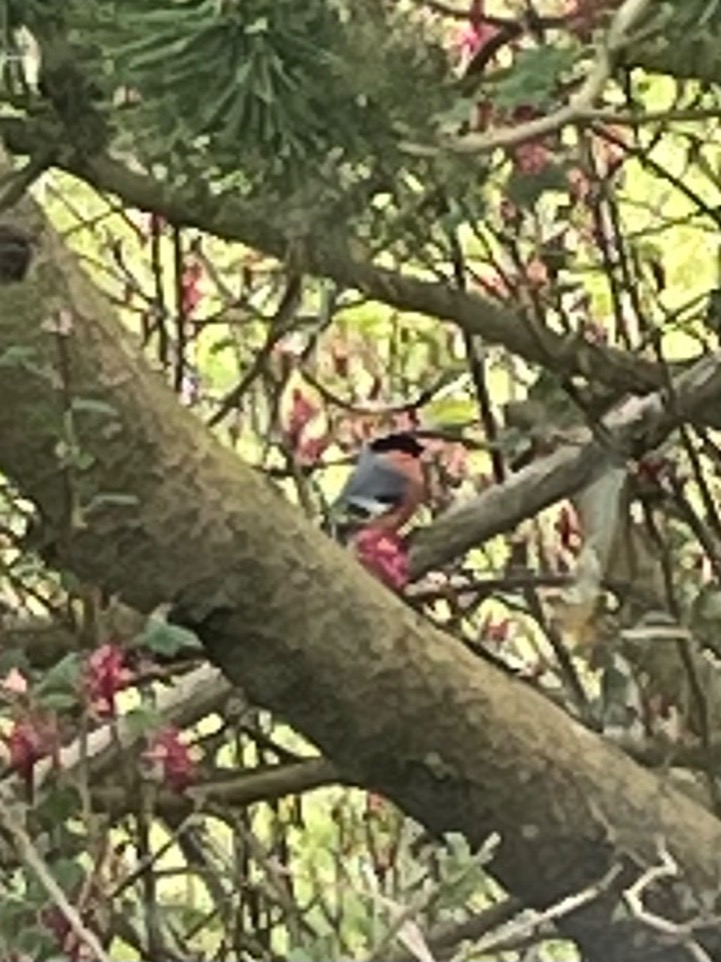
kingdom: Animalia
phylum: Chordata
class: Aves
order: Passeriformes
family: Fringillidae
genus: Pyrrhula
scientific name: Pyrrhula pyrrhula
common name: Dompap
